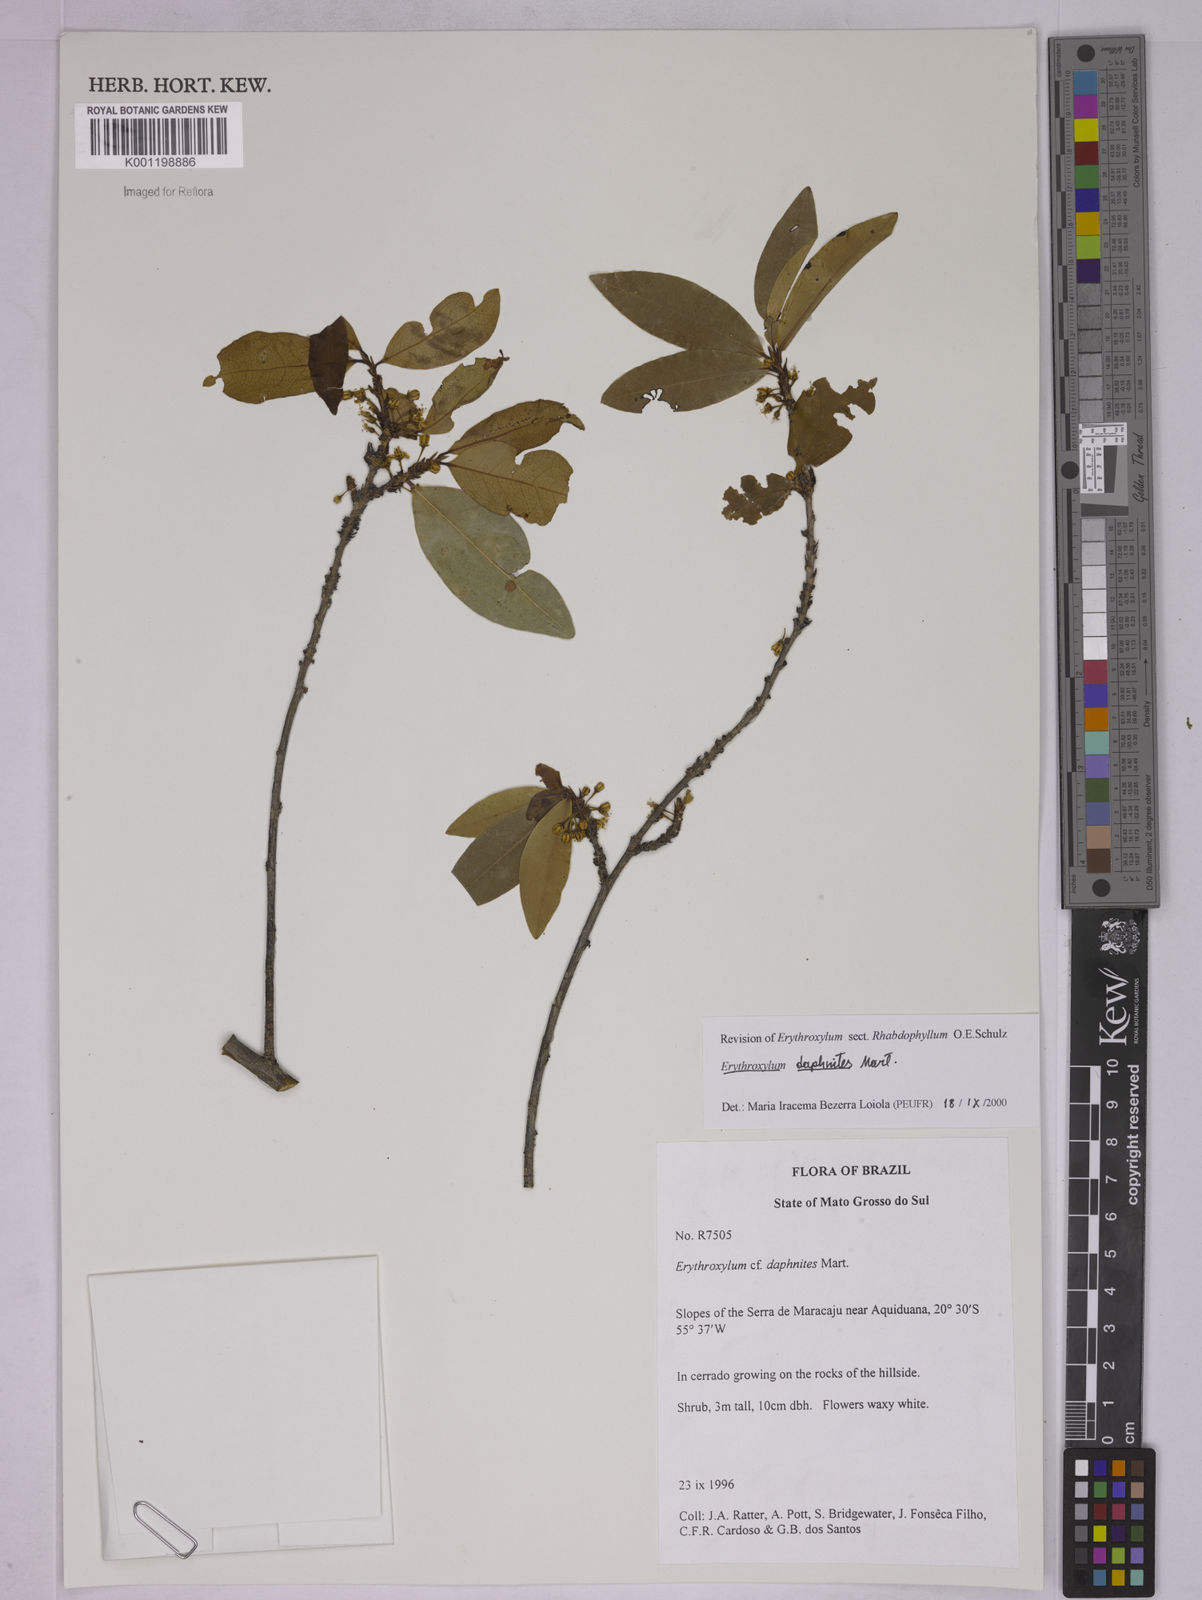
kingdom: Plantae
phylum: Tracheophyta
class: Magnoliopsida
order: Malpighiales
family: Erythroxylaceae
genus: Erythroxylum
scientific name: Erythroxylum daphnites
